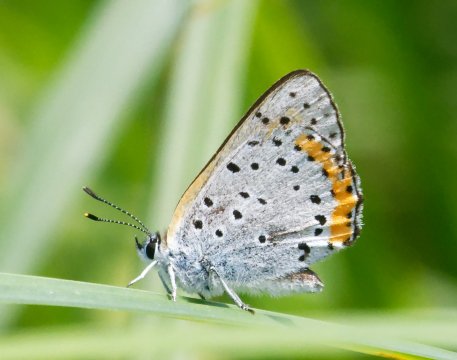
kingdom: Animalia
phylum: Arthropoda
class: Insecta
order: Lepidoptera
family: Sesiidae
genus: Sesia
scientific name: Sesia Lycaena hyllus
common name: Bronze Copper
